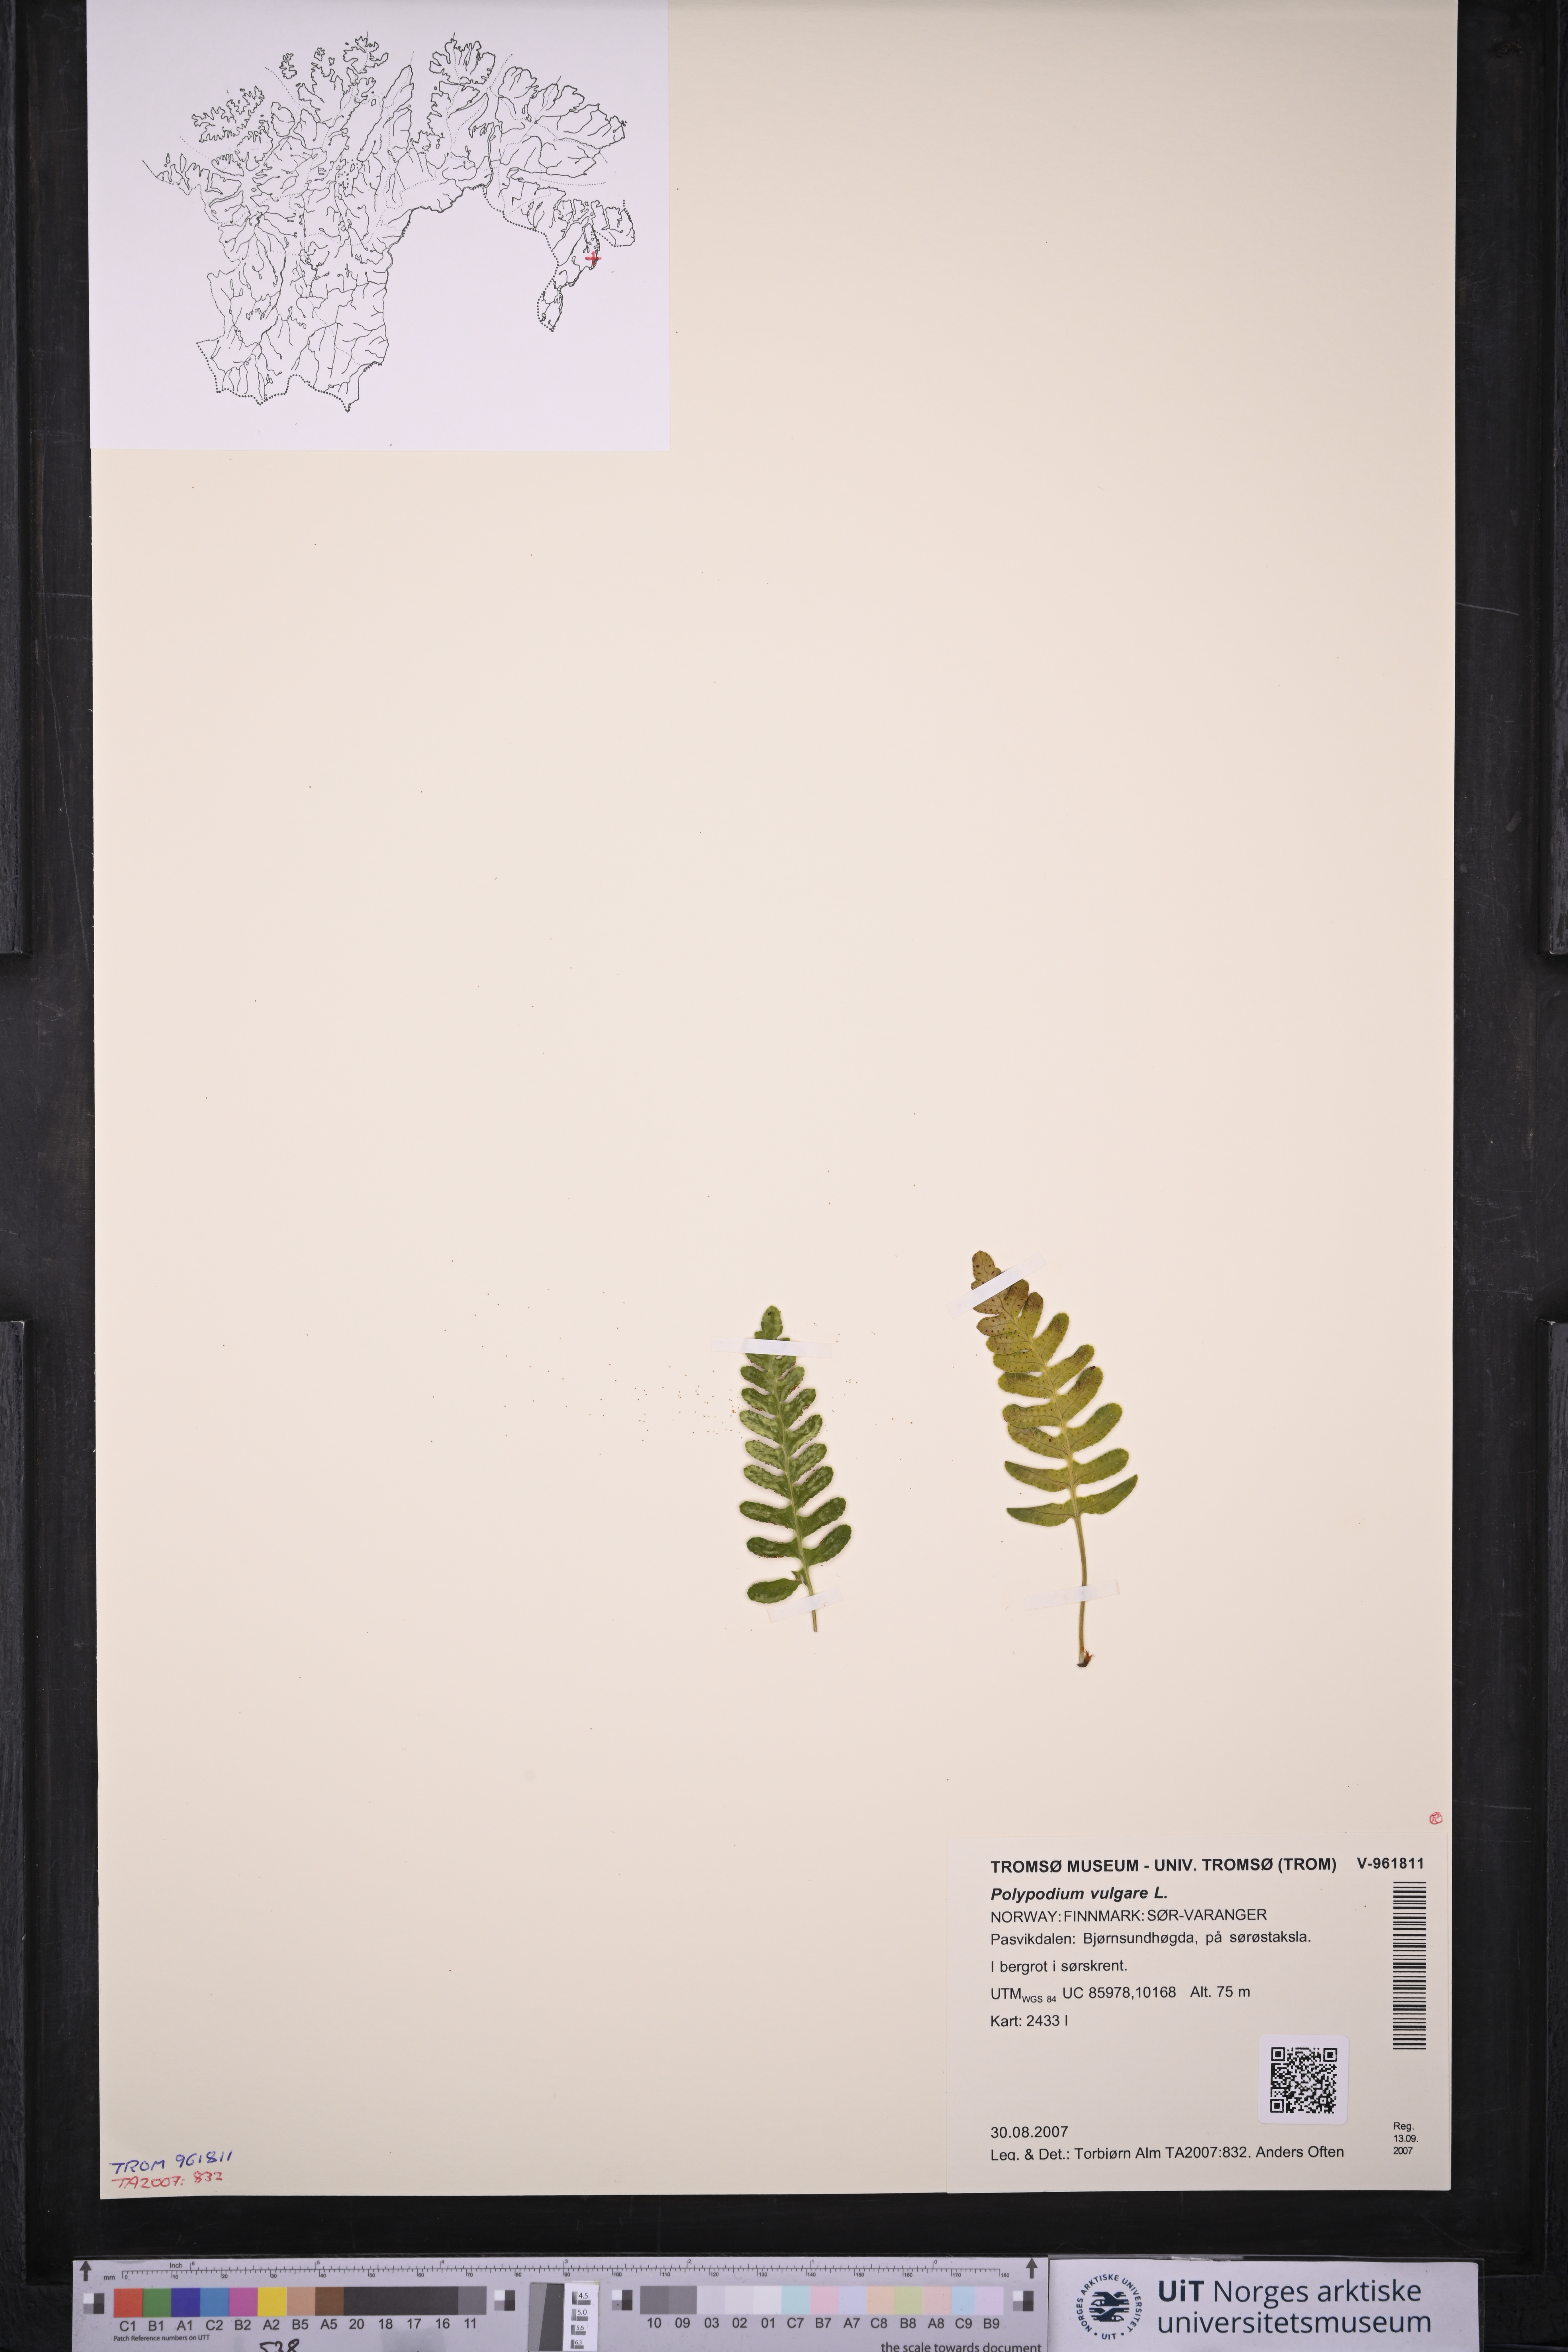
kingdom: Plantae
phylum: Tracheophyta
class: Polypodiopsida
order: Polypodiales
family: Polypodiaceae
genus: Polypodium
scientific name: Polypodium vulgare
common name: Common polypody
